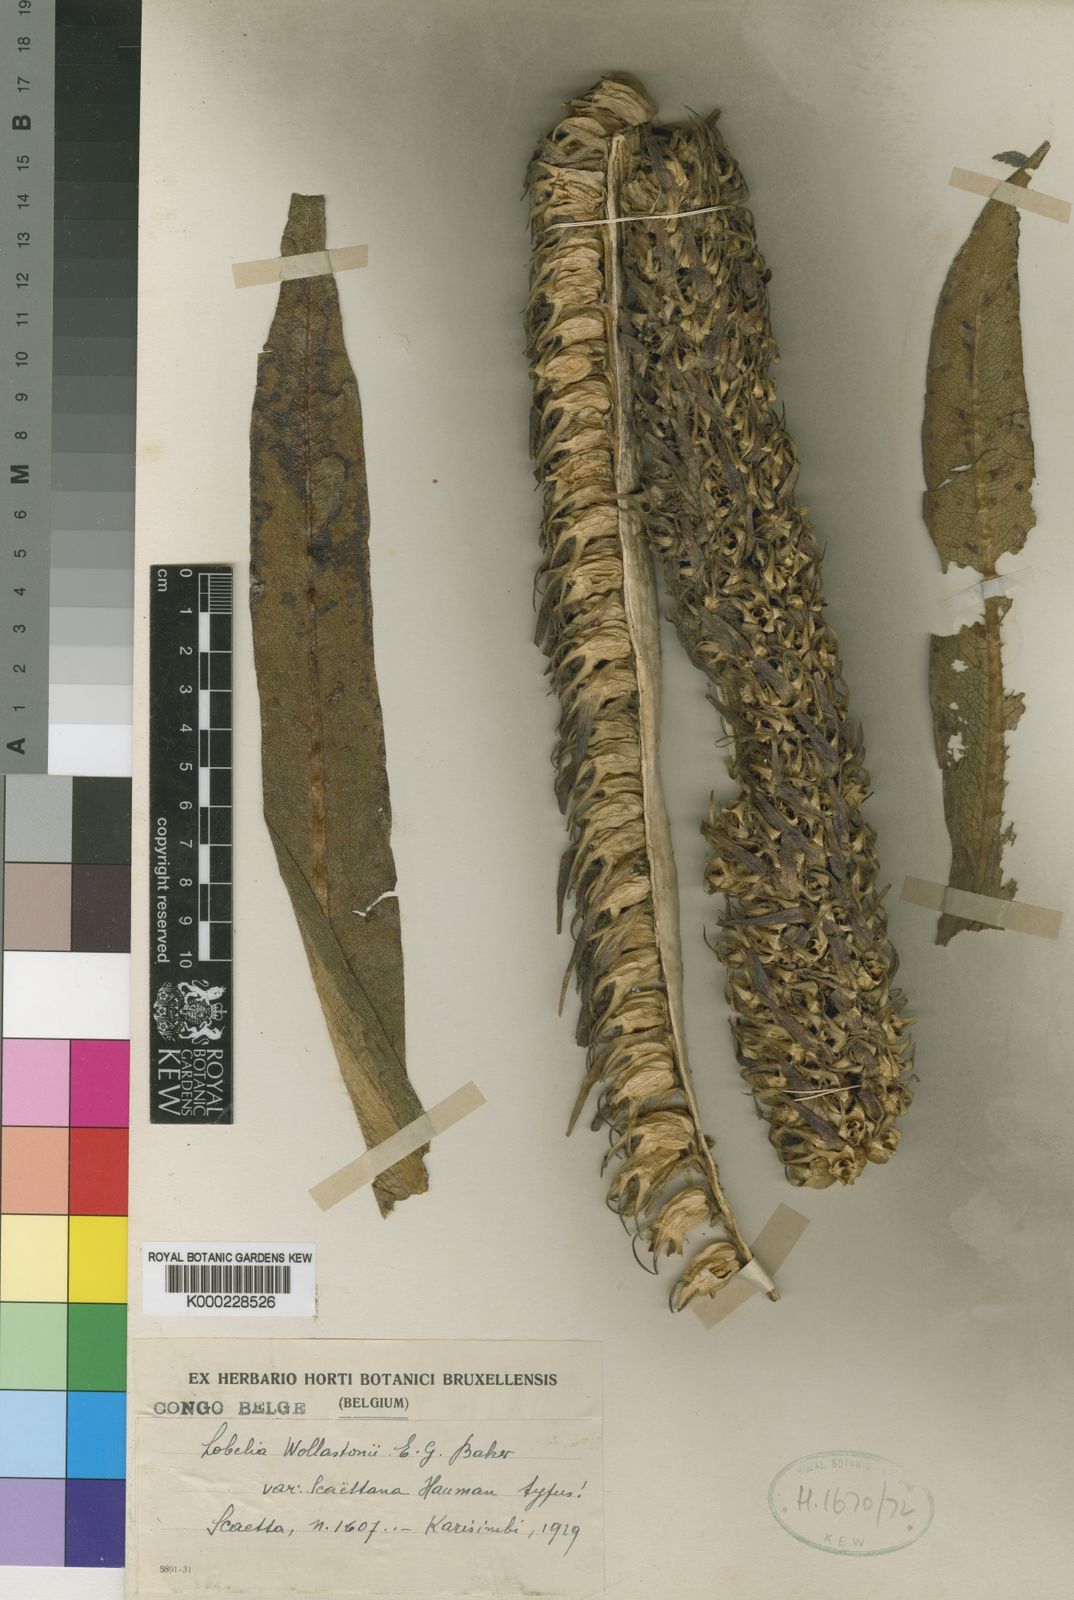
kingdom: Plantae
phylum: Tracheophyta
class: Magnoliopsida
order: Asterales
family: Campanulaceae
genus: Lobelia
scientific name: Lobelia wollastonii
